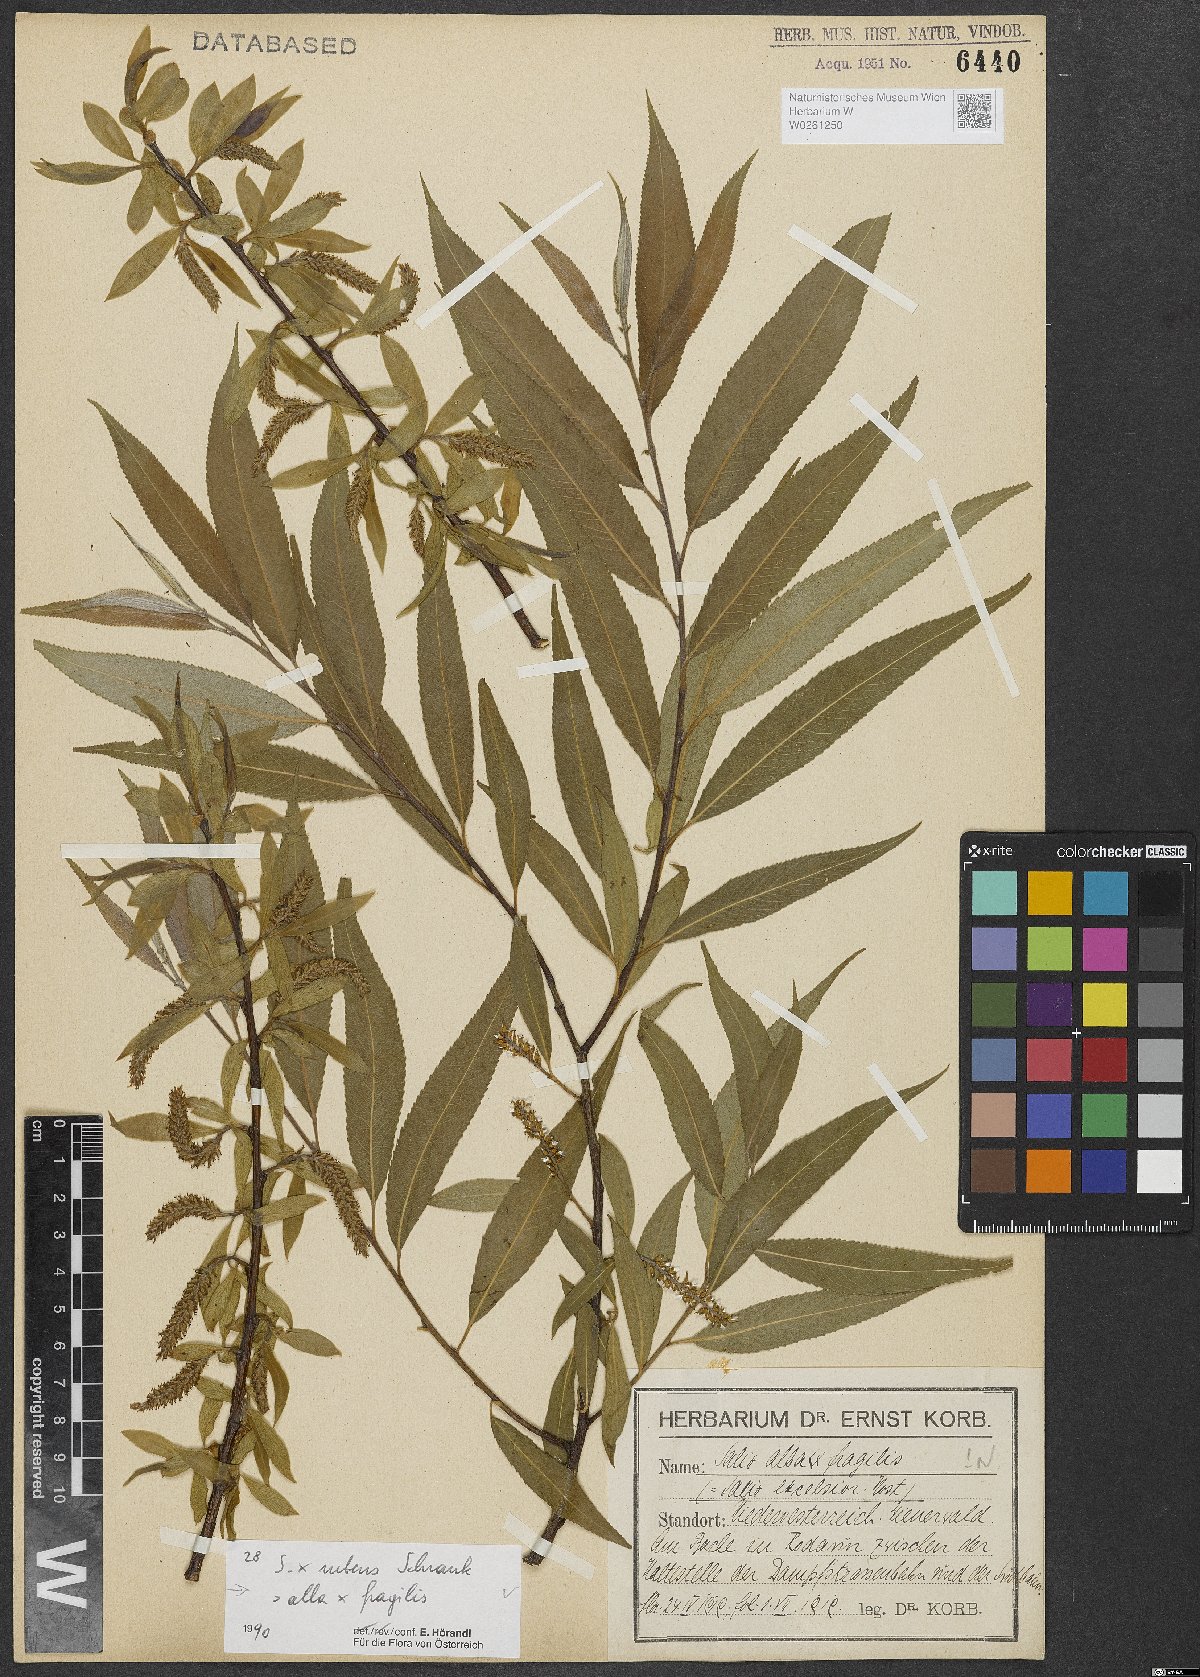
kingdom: Plantae
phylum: Tracheophyta
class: Magnoliopsida
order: Malpighiales
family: Salicaceae
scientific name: Salicaceae
